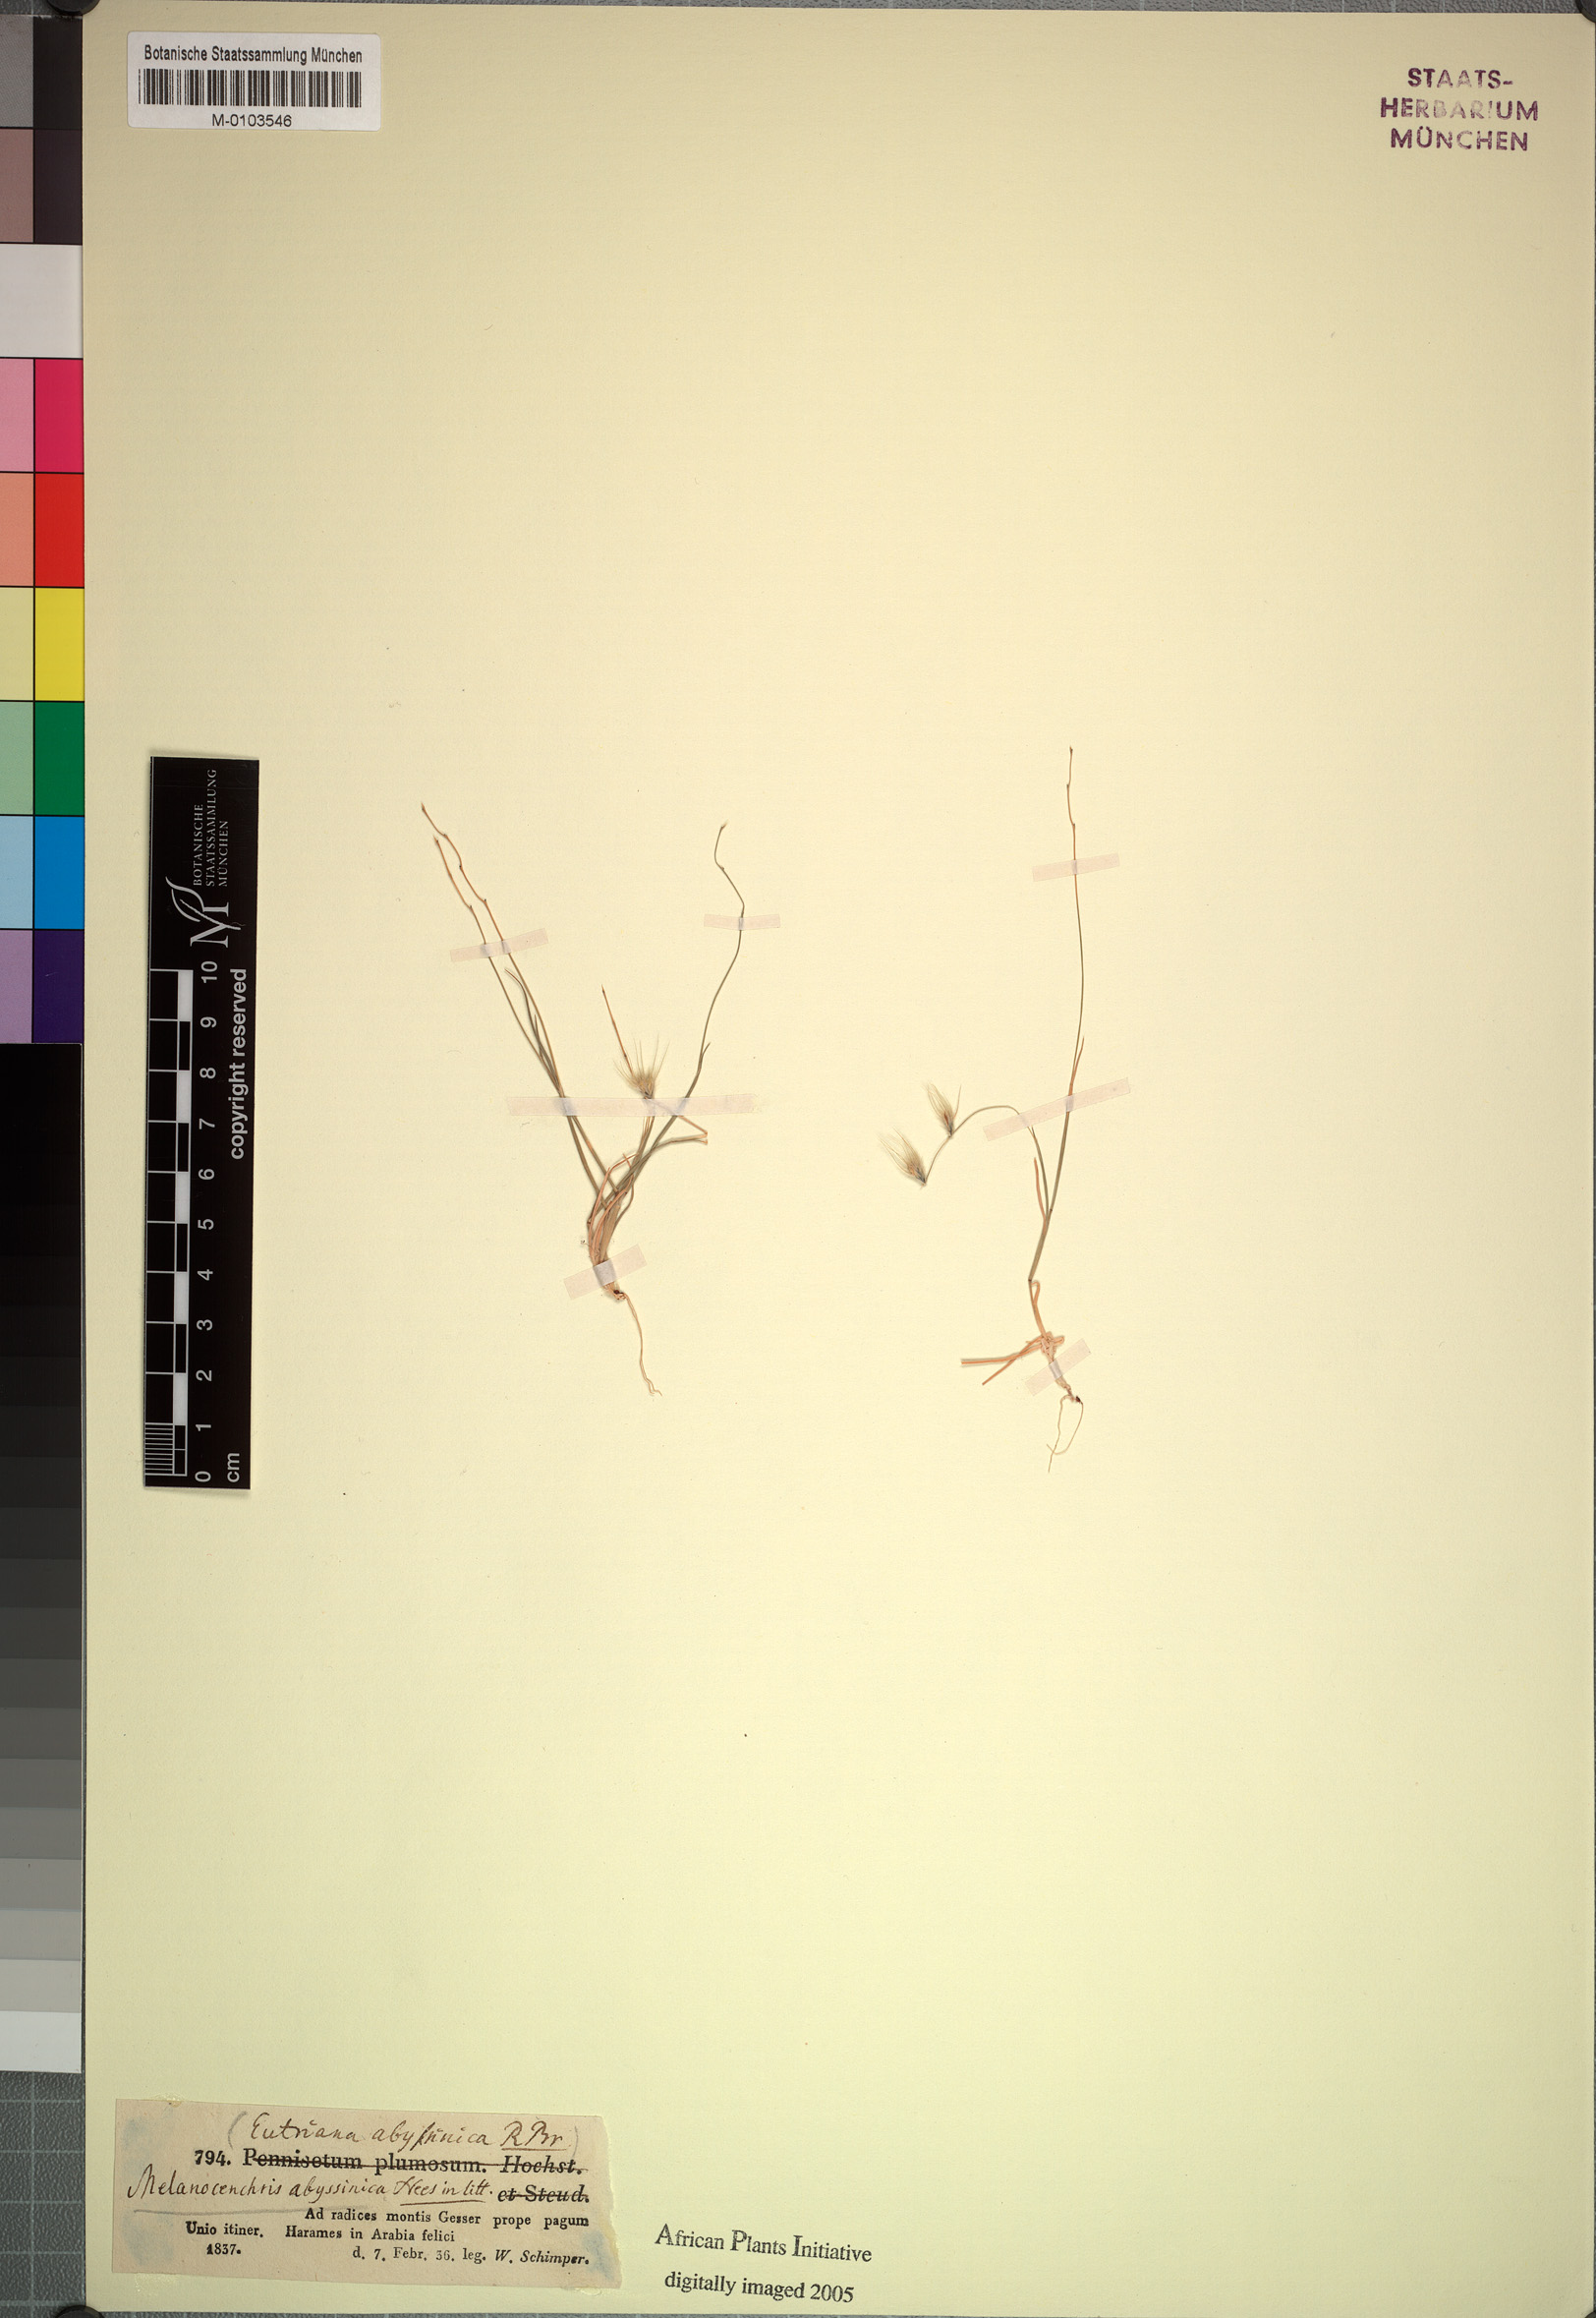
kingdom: Plantae
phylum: Tracheophyta
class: Liliopsida
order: Poales
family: Poaceae
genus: Melanocenchris
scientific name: Melanocenchris abyssinica
